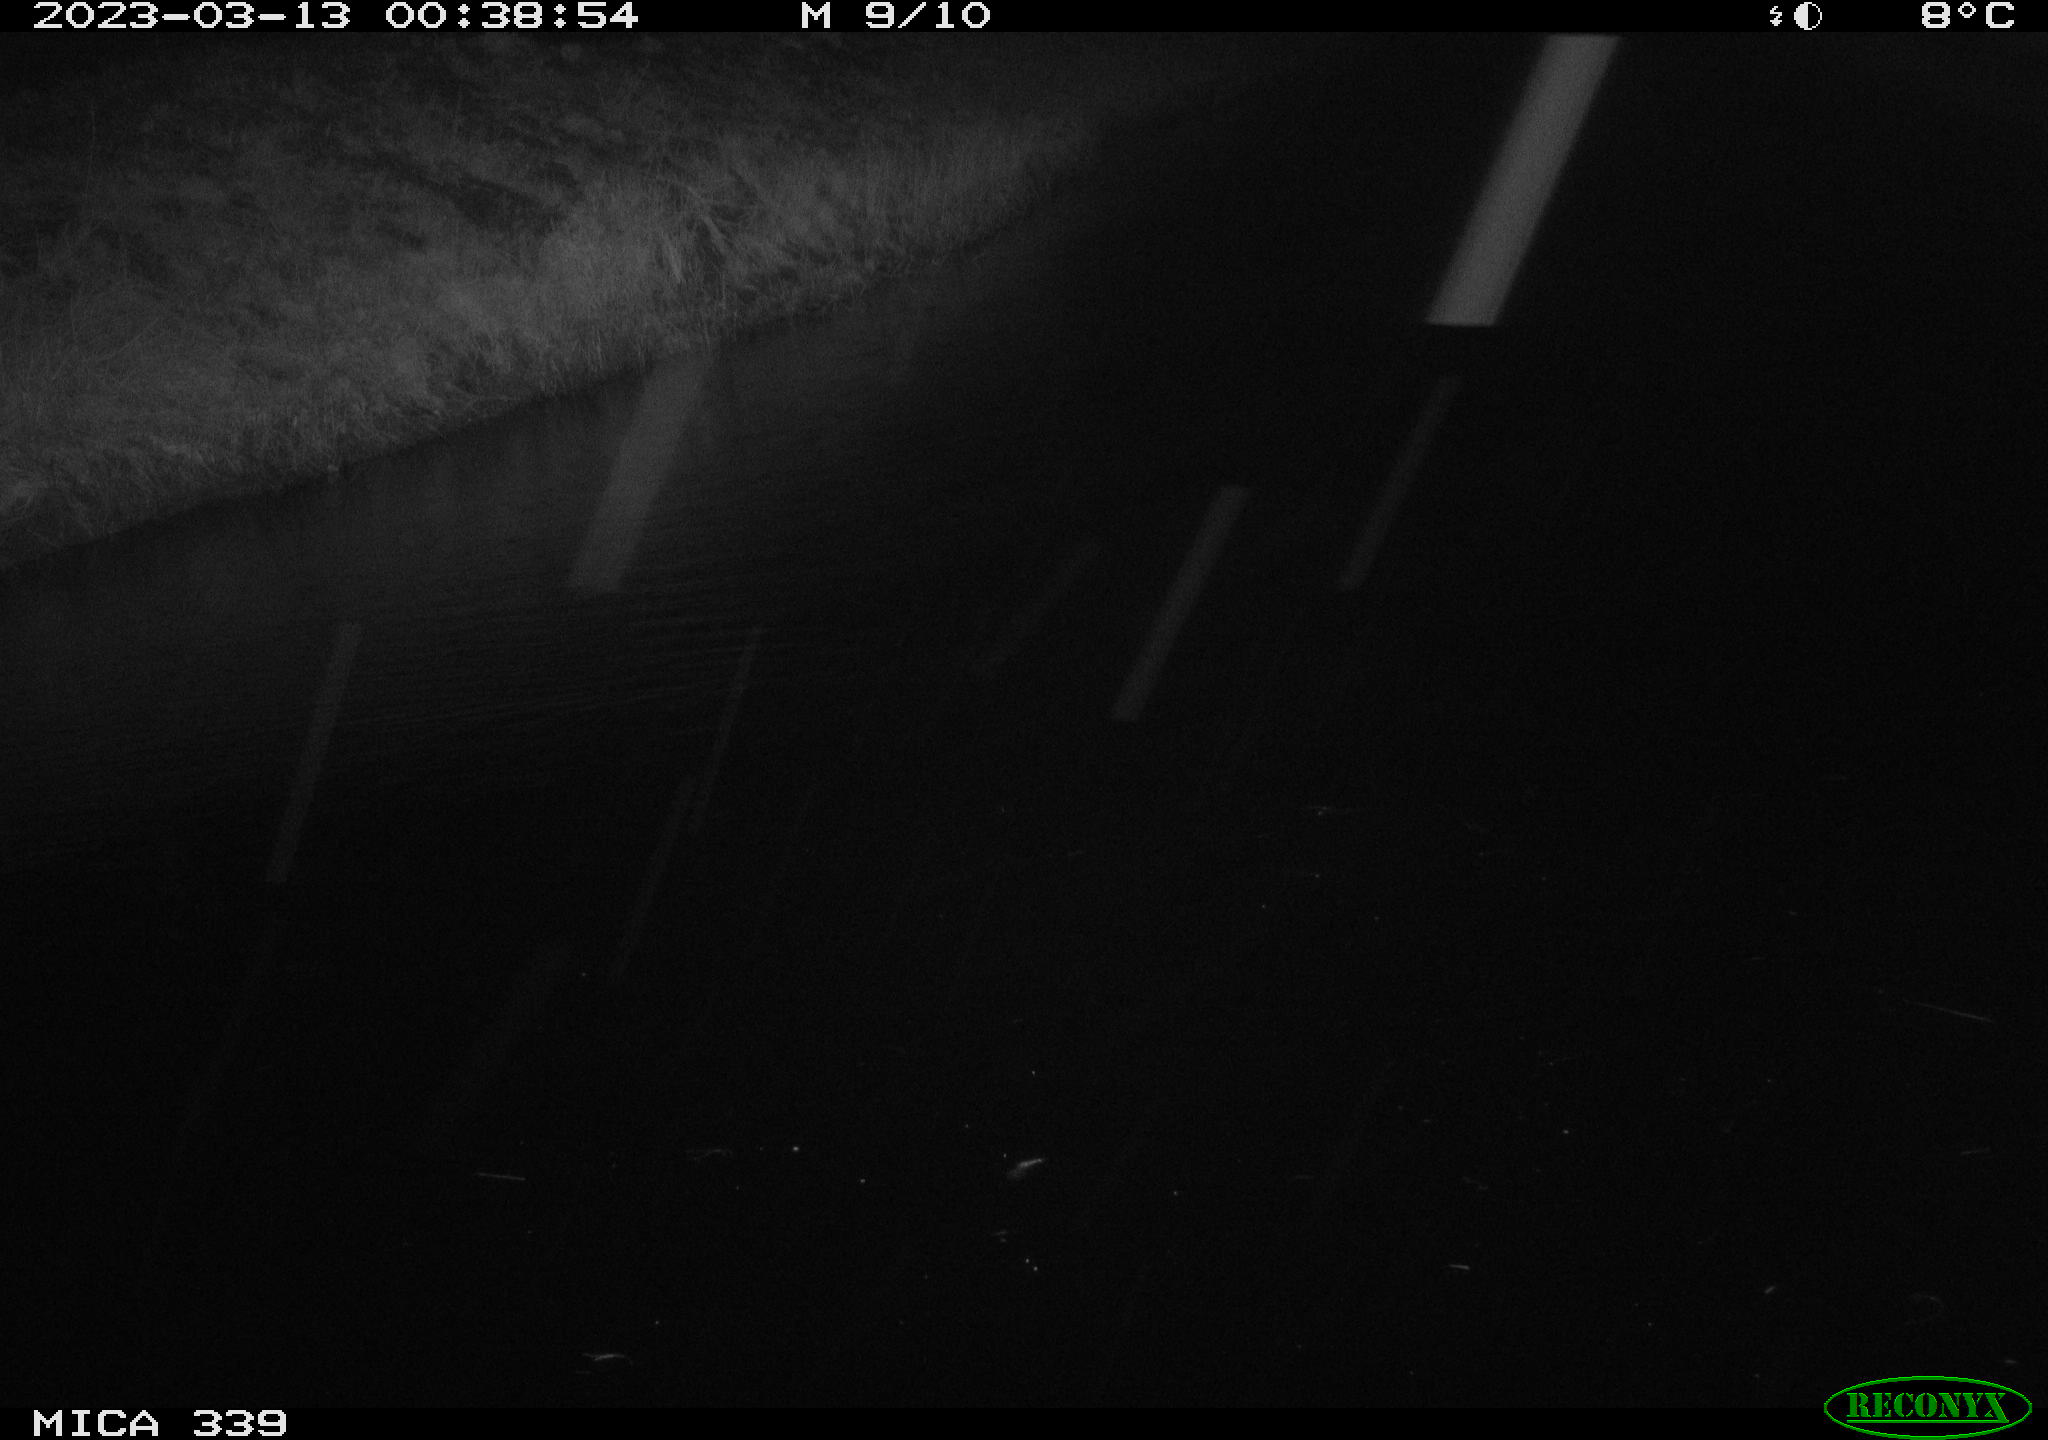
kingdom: Animalia
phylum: Chordata
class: Aves
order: Gruiformes
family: Rallidae
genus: Fulica
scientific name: Fulica atra
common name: Eurasian coot
